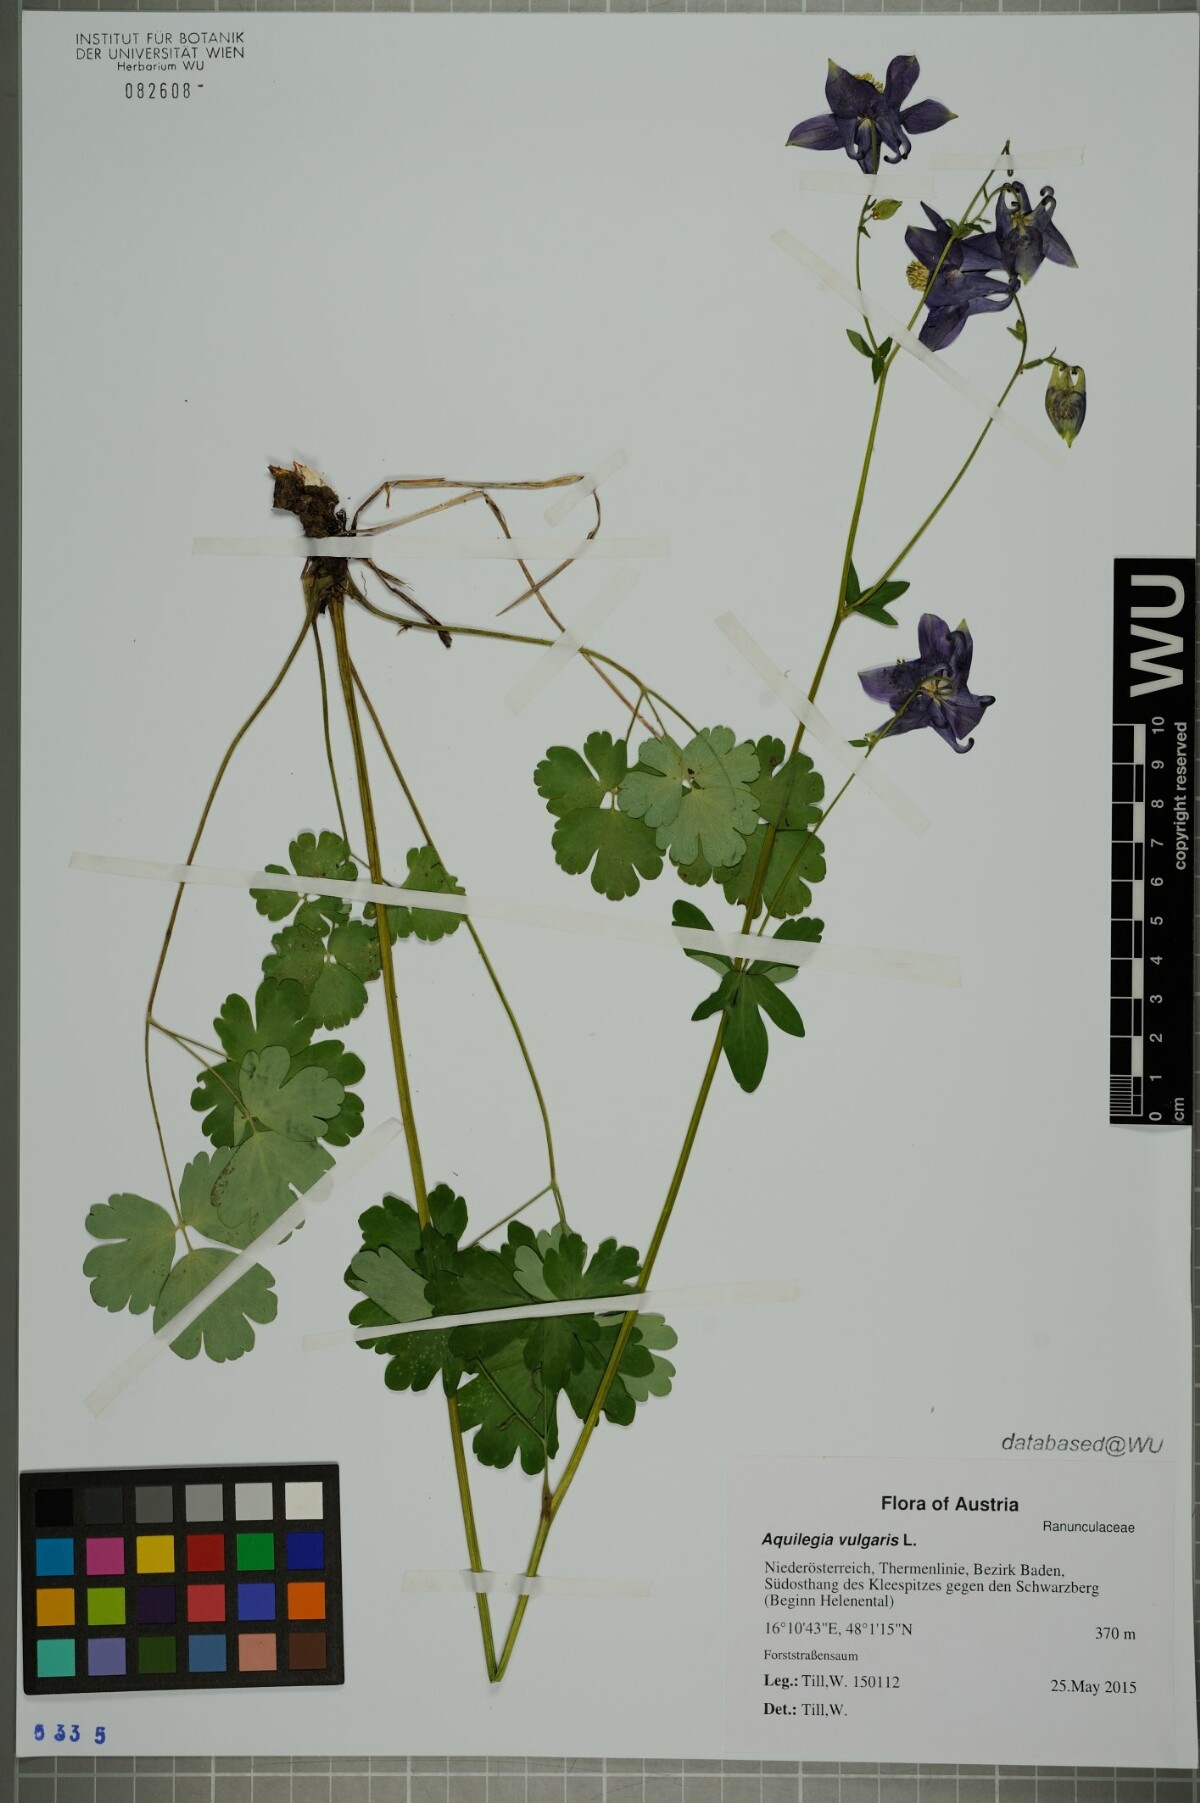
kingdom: Plantae
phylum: Tracheophyta
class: Magnoliopsida
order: Ranunculales
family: Ranunculaceae
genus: Aquilegia
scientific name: Aquilegia vulgaris
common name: Columbine
